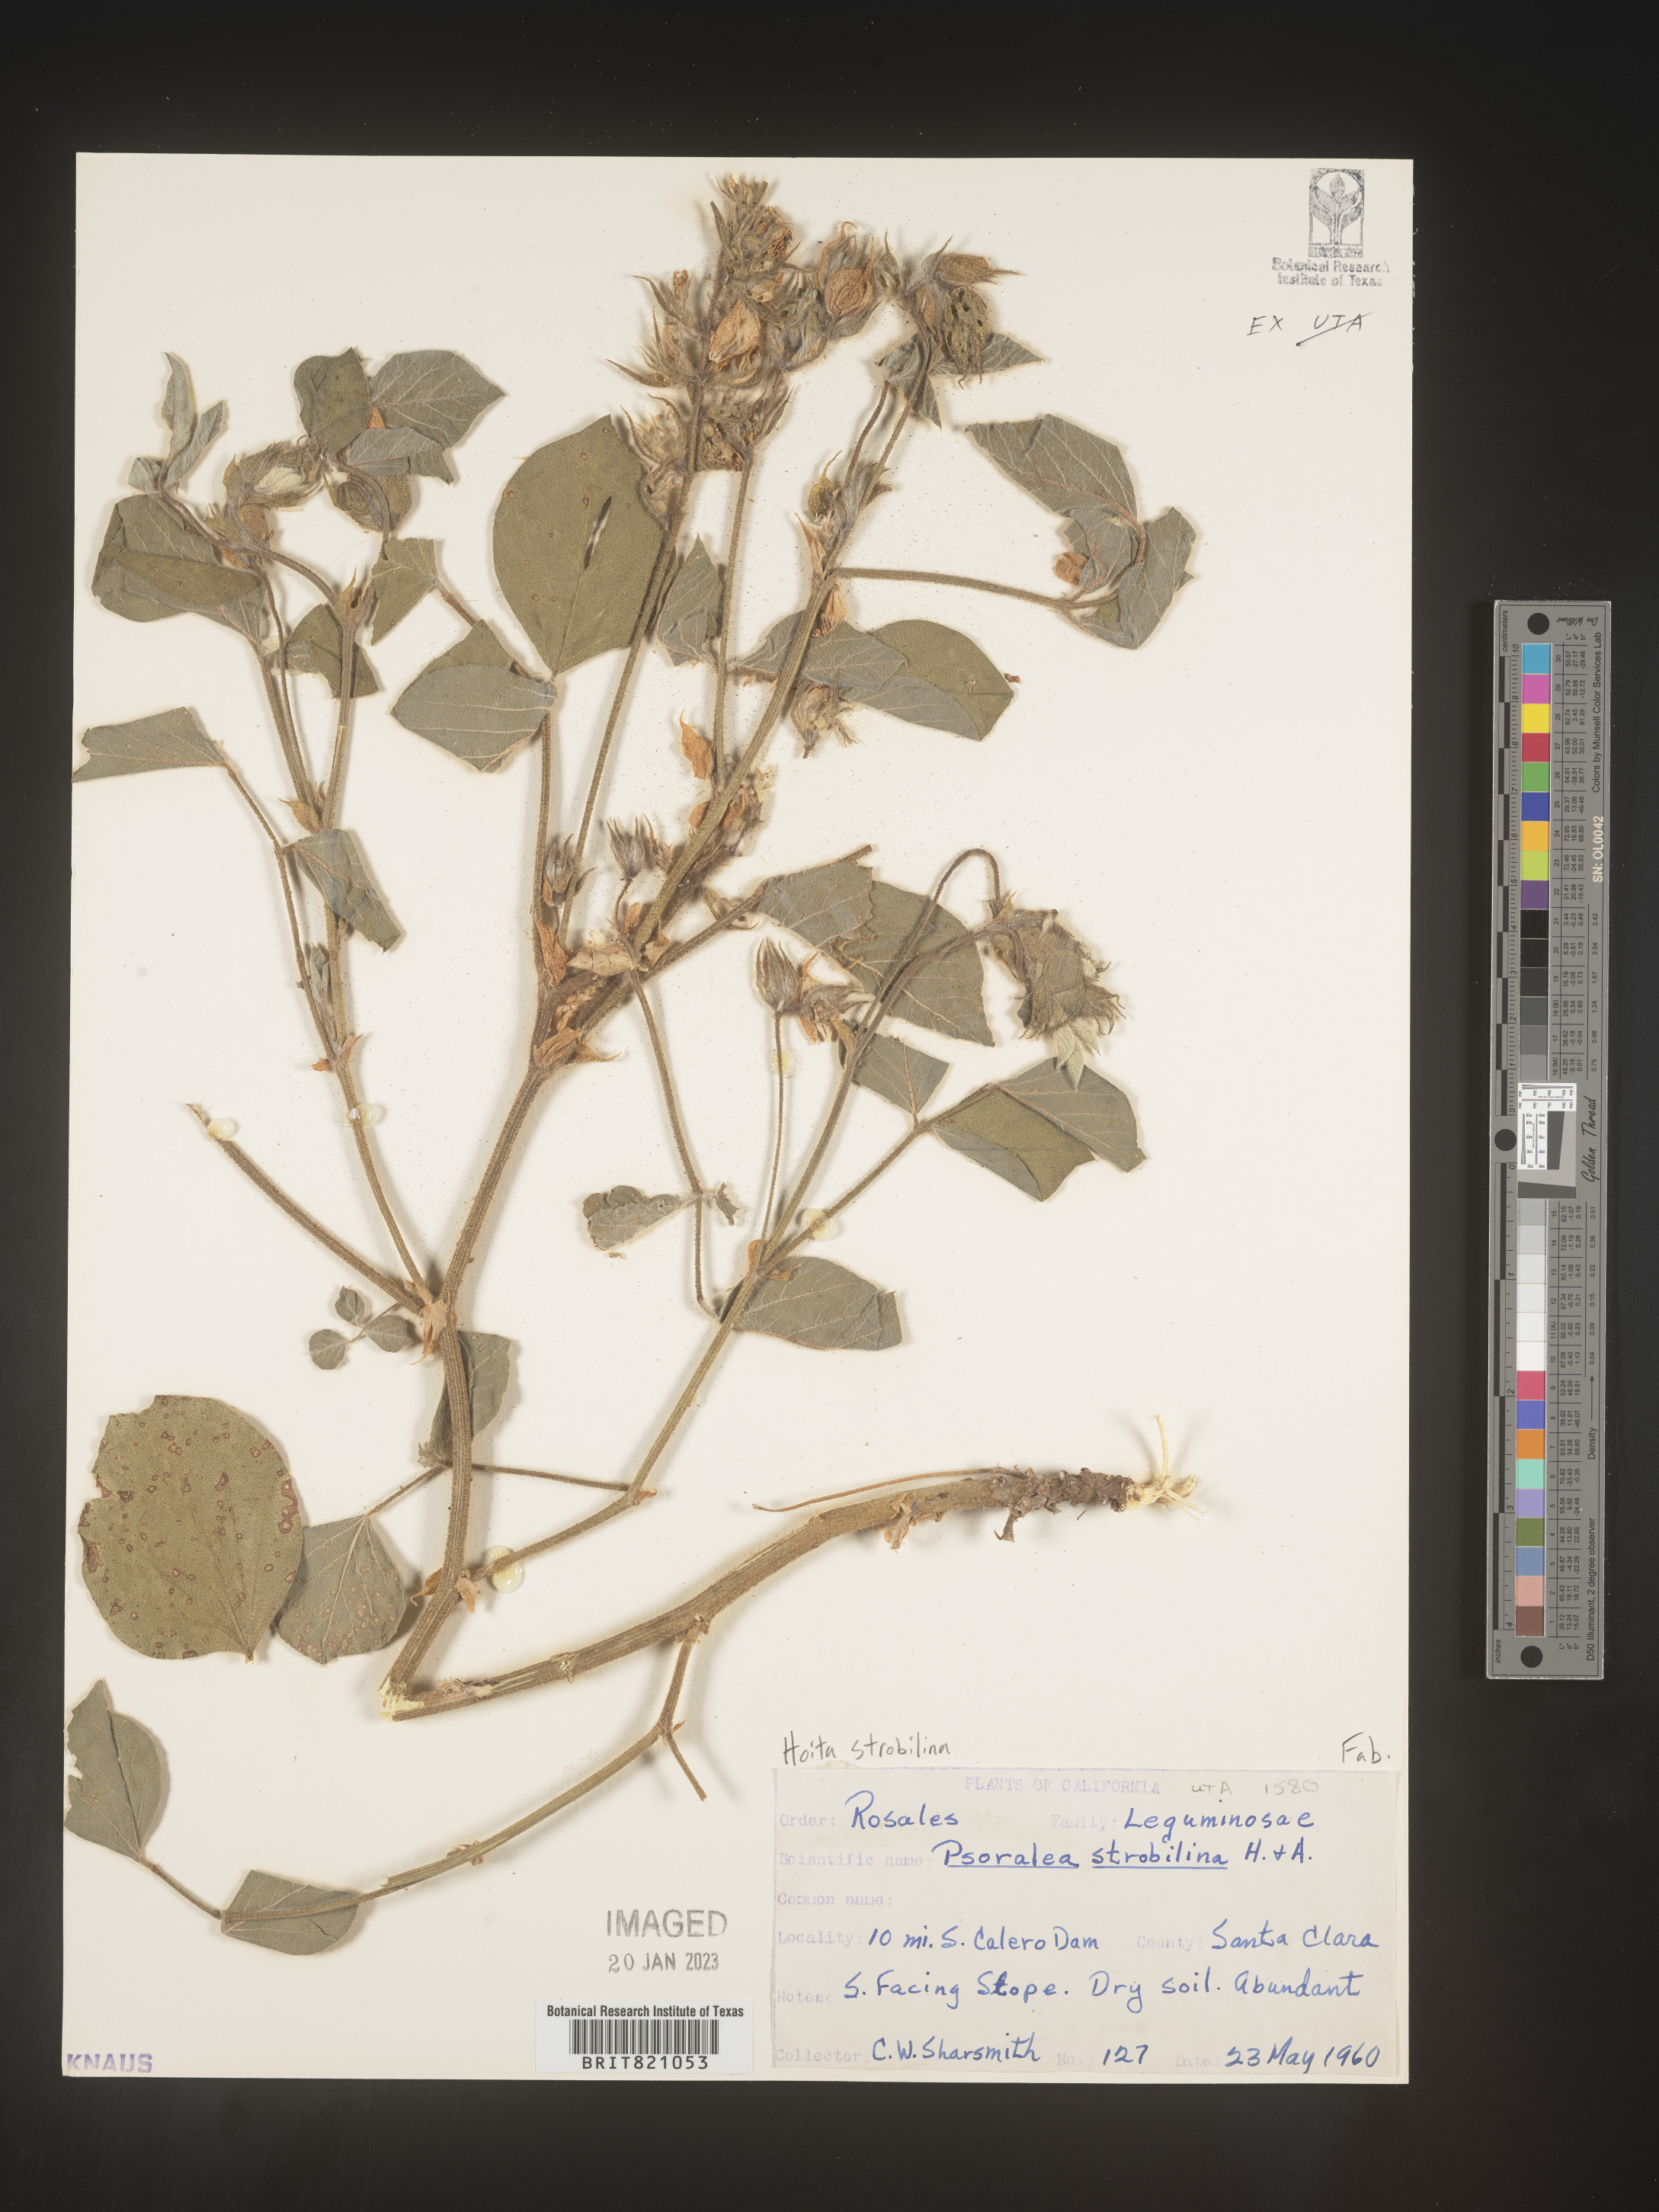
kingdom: Plantae
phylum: Tracheophyta
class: Magnoliopsida
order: Fabales
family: Fabaceae
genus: Hoita
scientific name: Hoita
